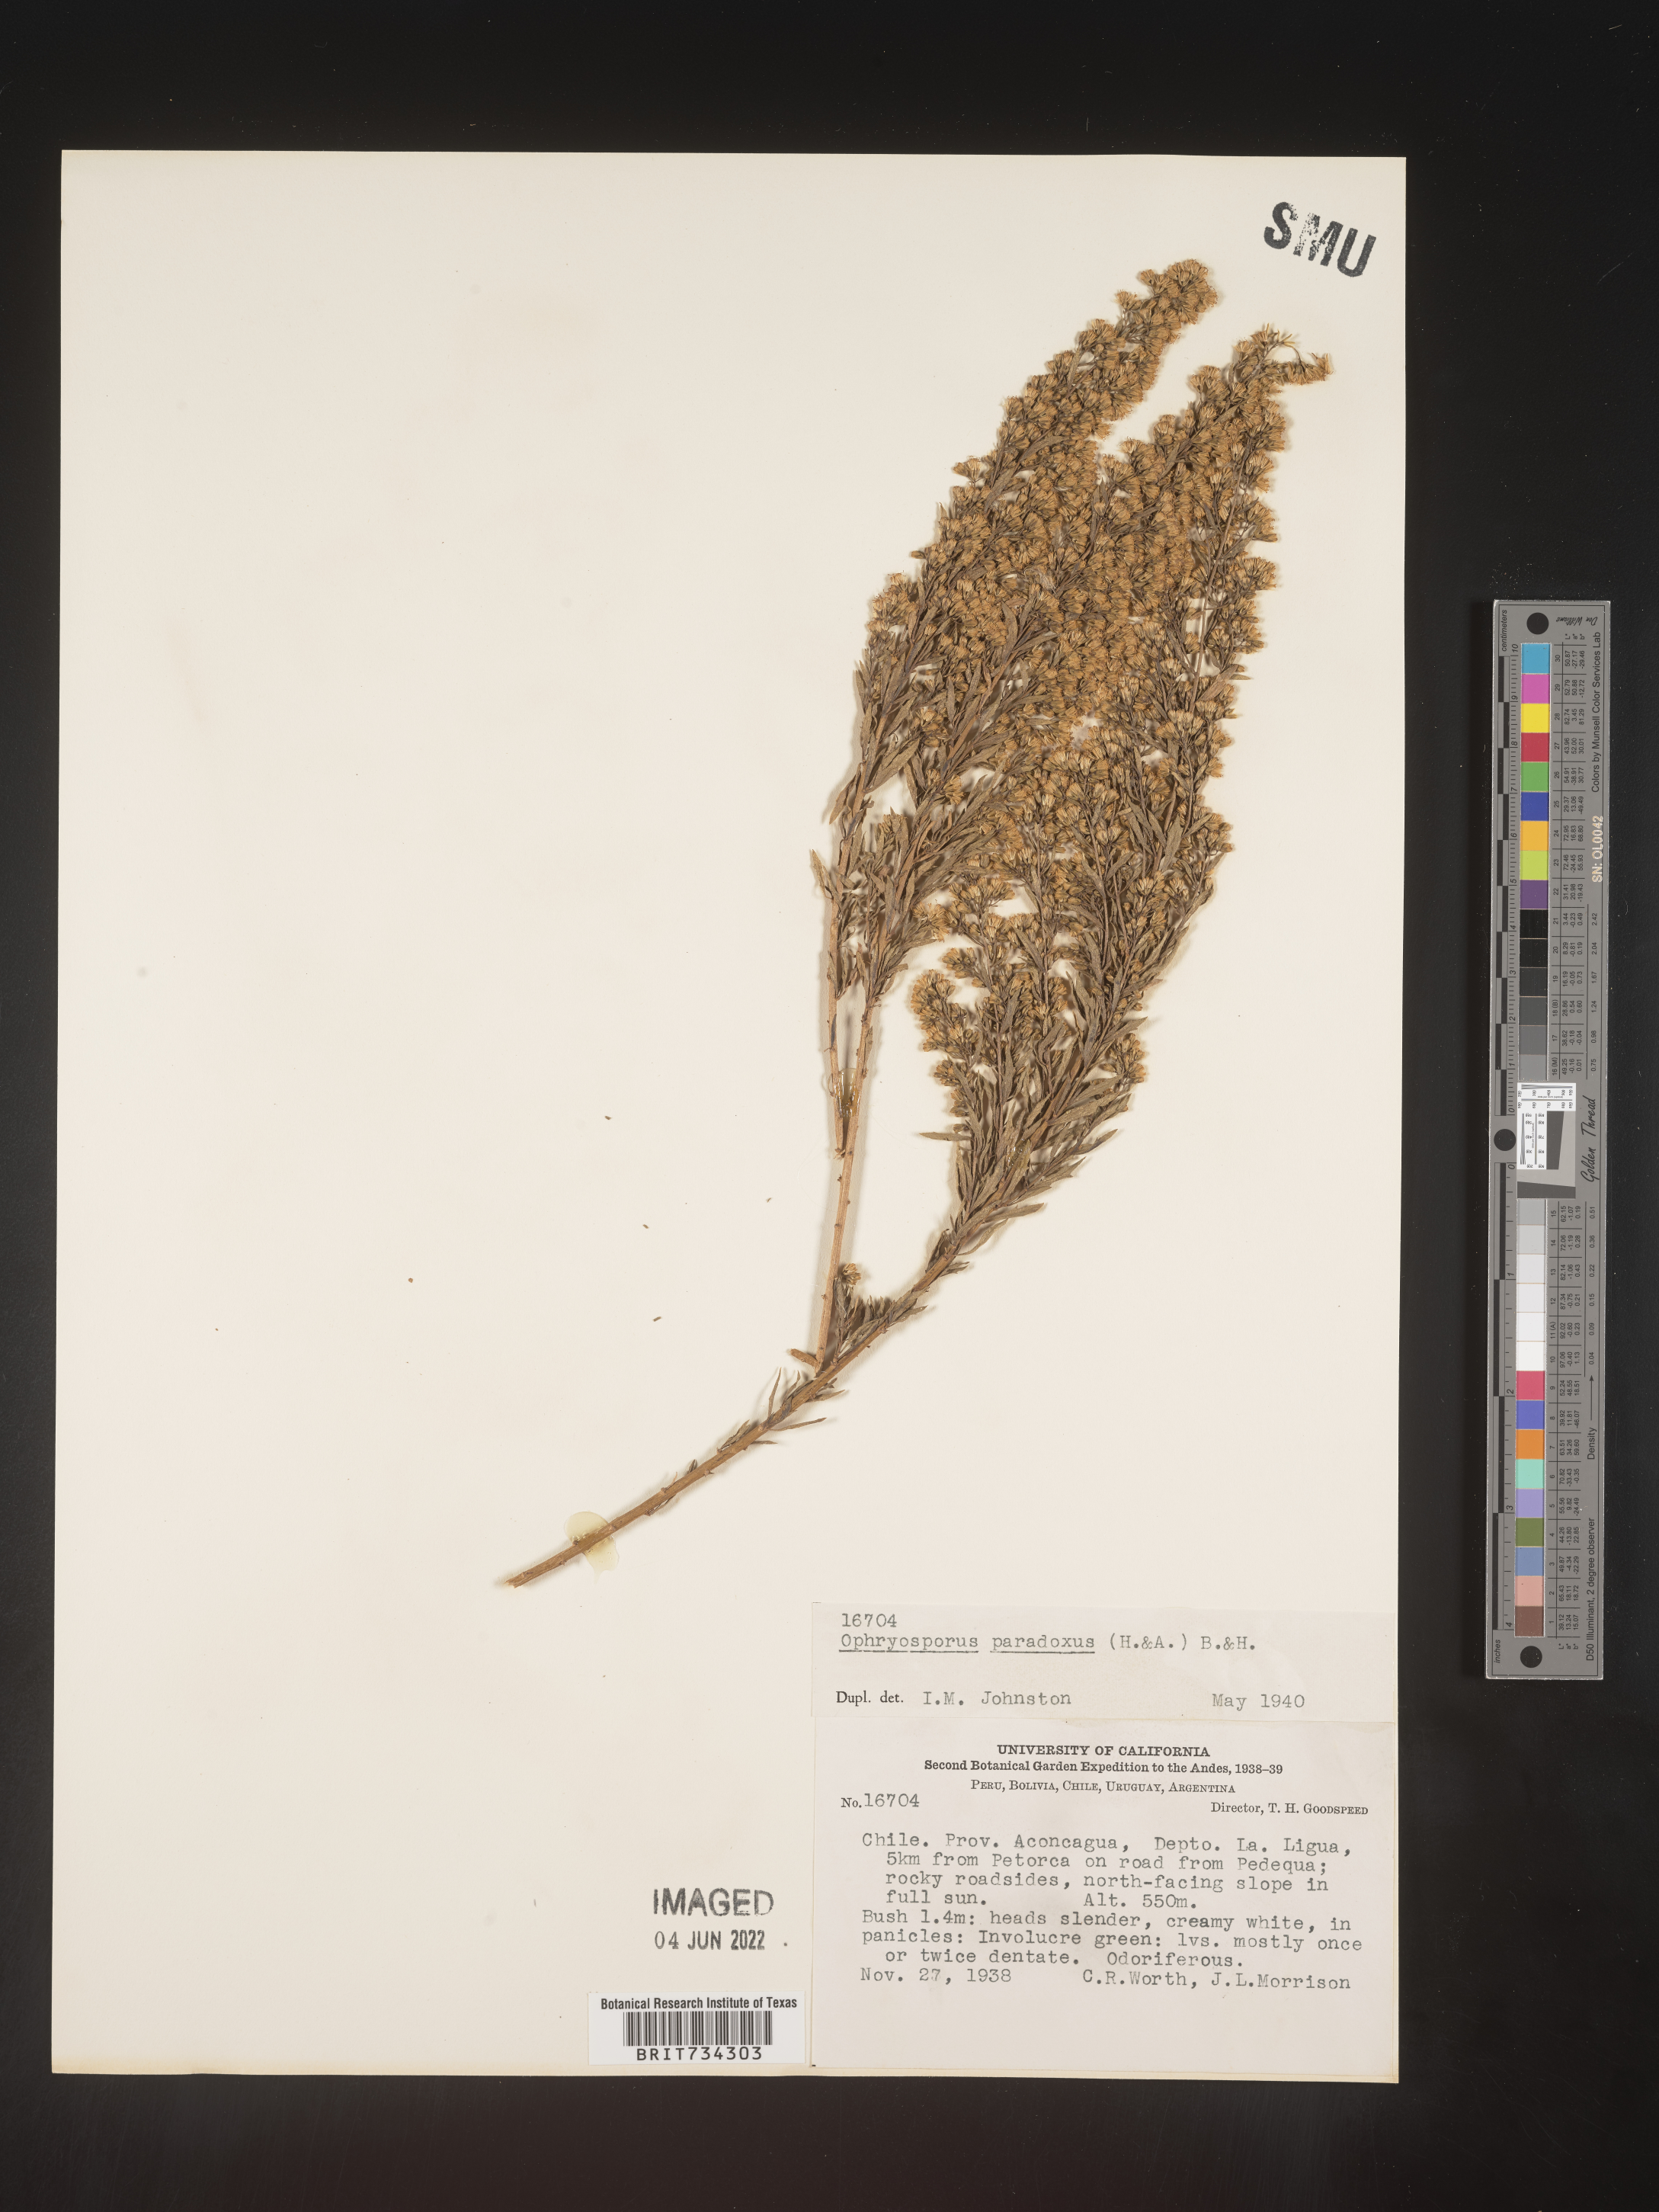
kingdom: Plantae
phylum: Tracheophyta
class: Magnoliopsida
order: Asterales
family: Asteraceae
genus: Ophryosporus
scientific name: Ophryosporus paradoxus
